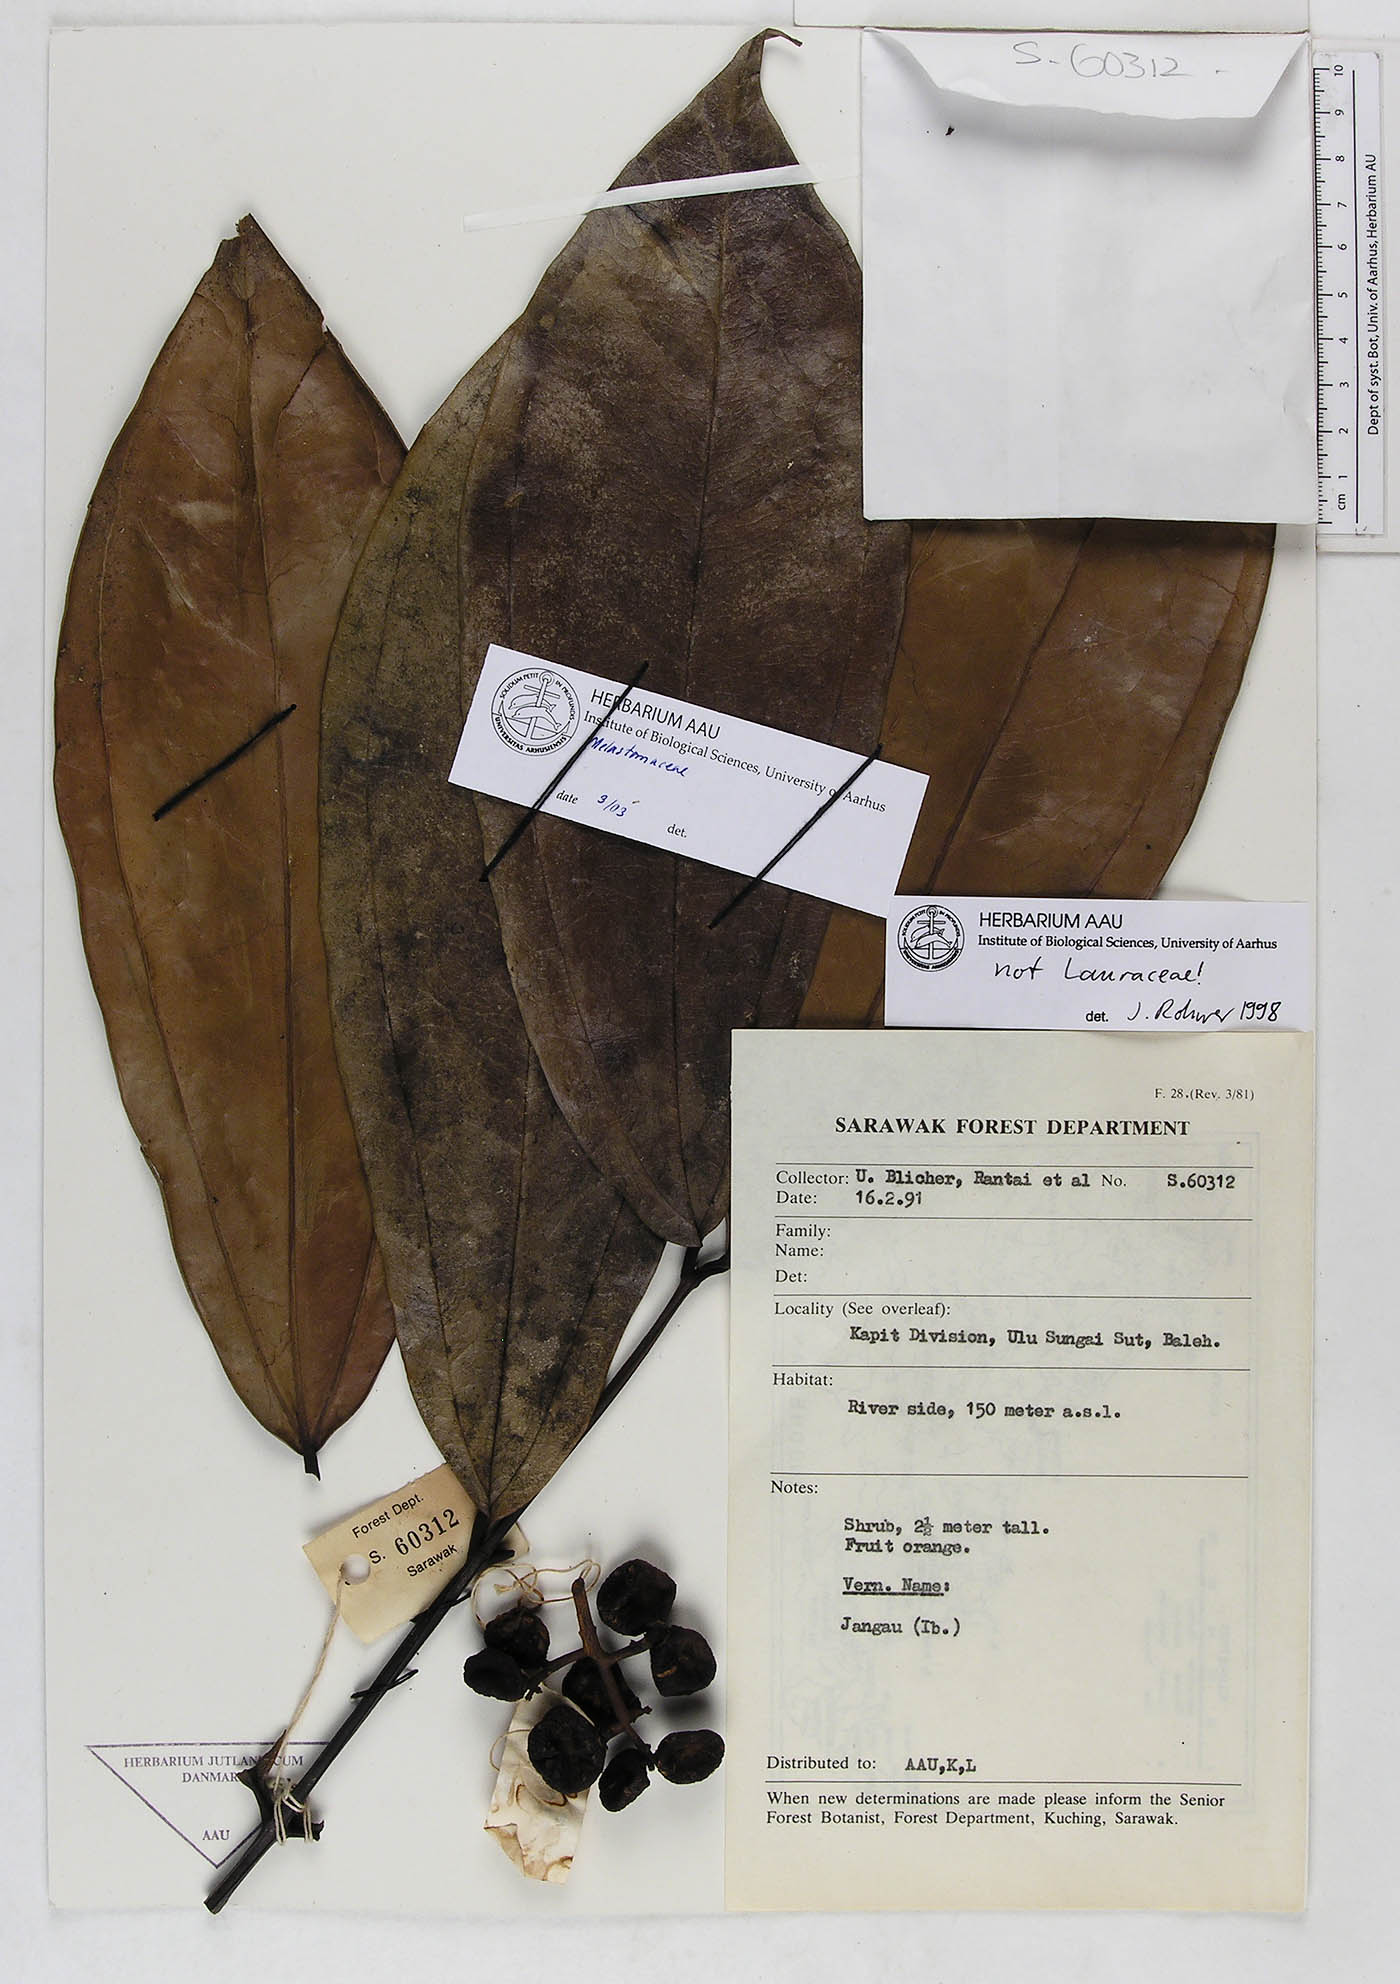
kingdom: Plantae
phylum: Tracheophyta
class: Magnoliopsida
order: Myrtales
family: Melastomataceae
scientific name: Melastomataceae
